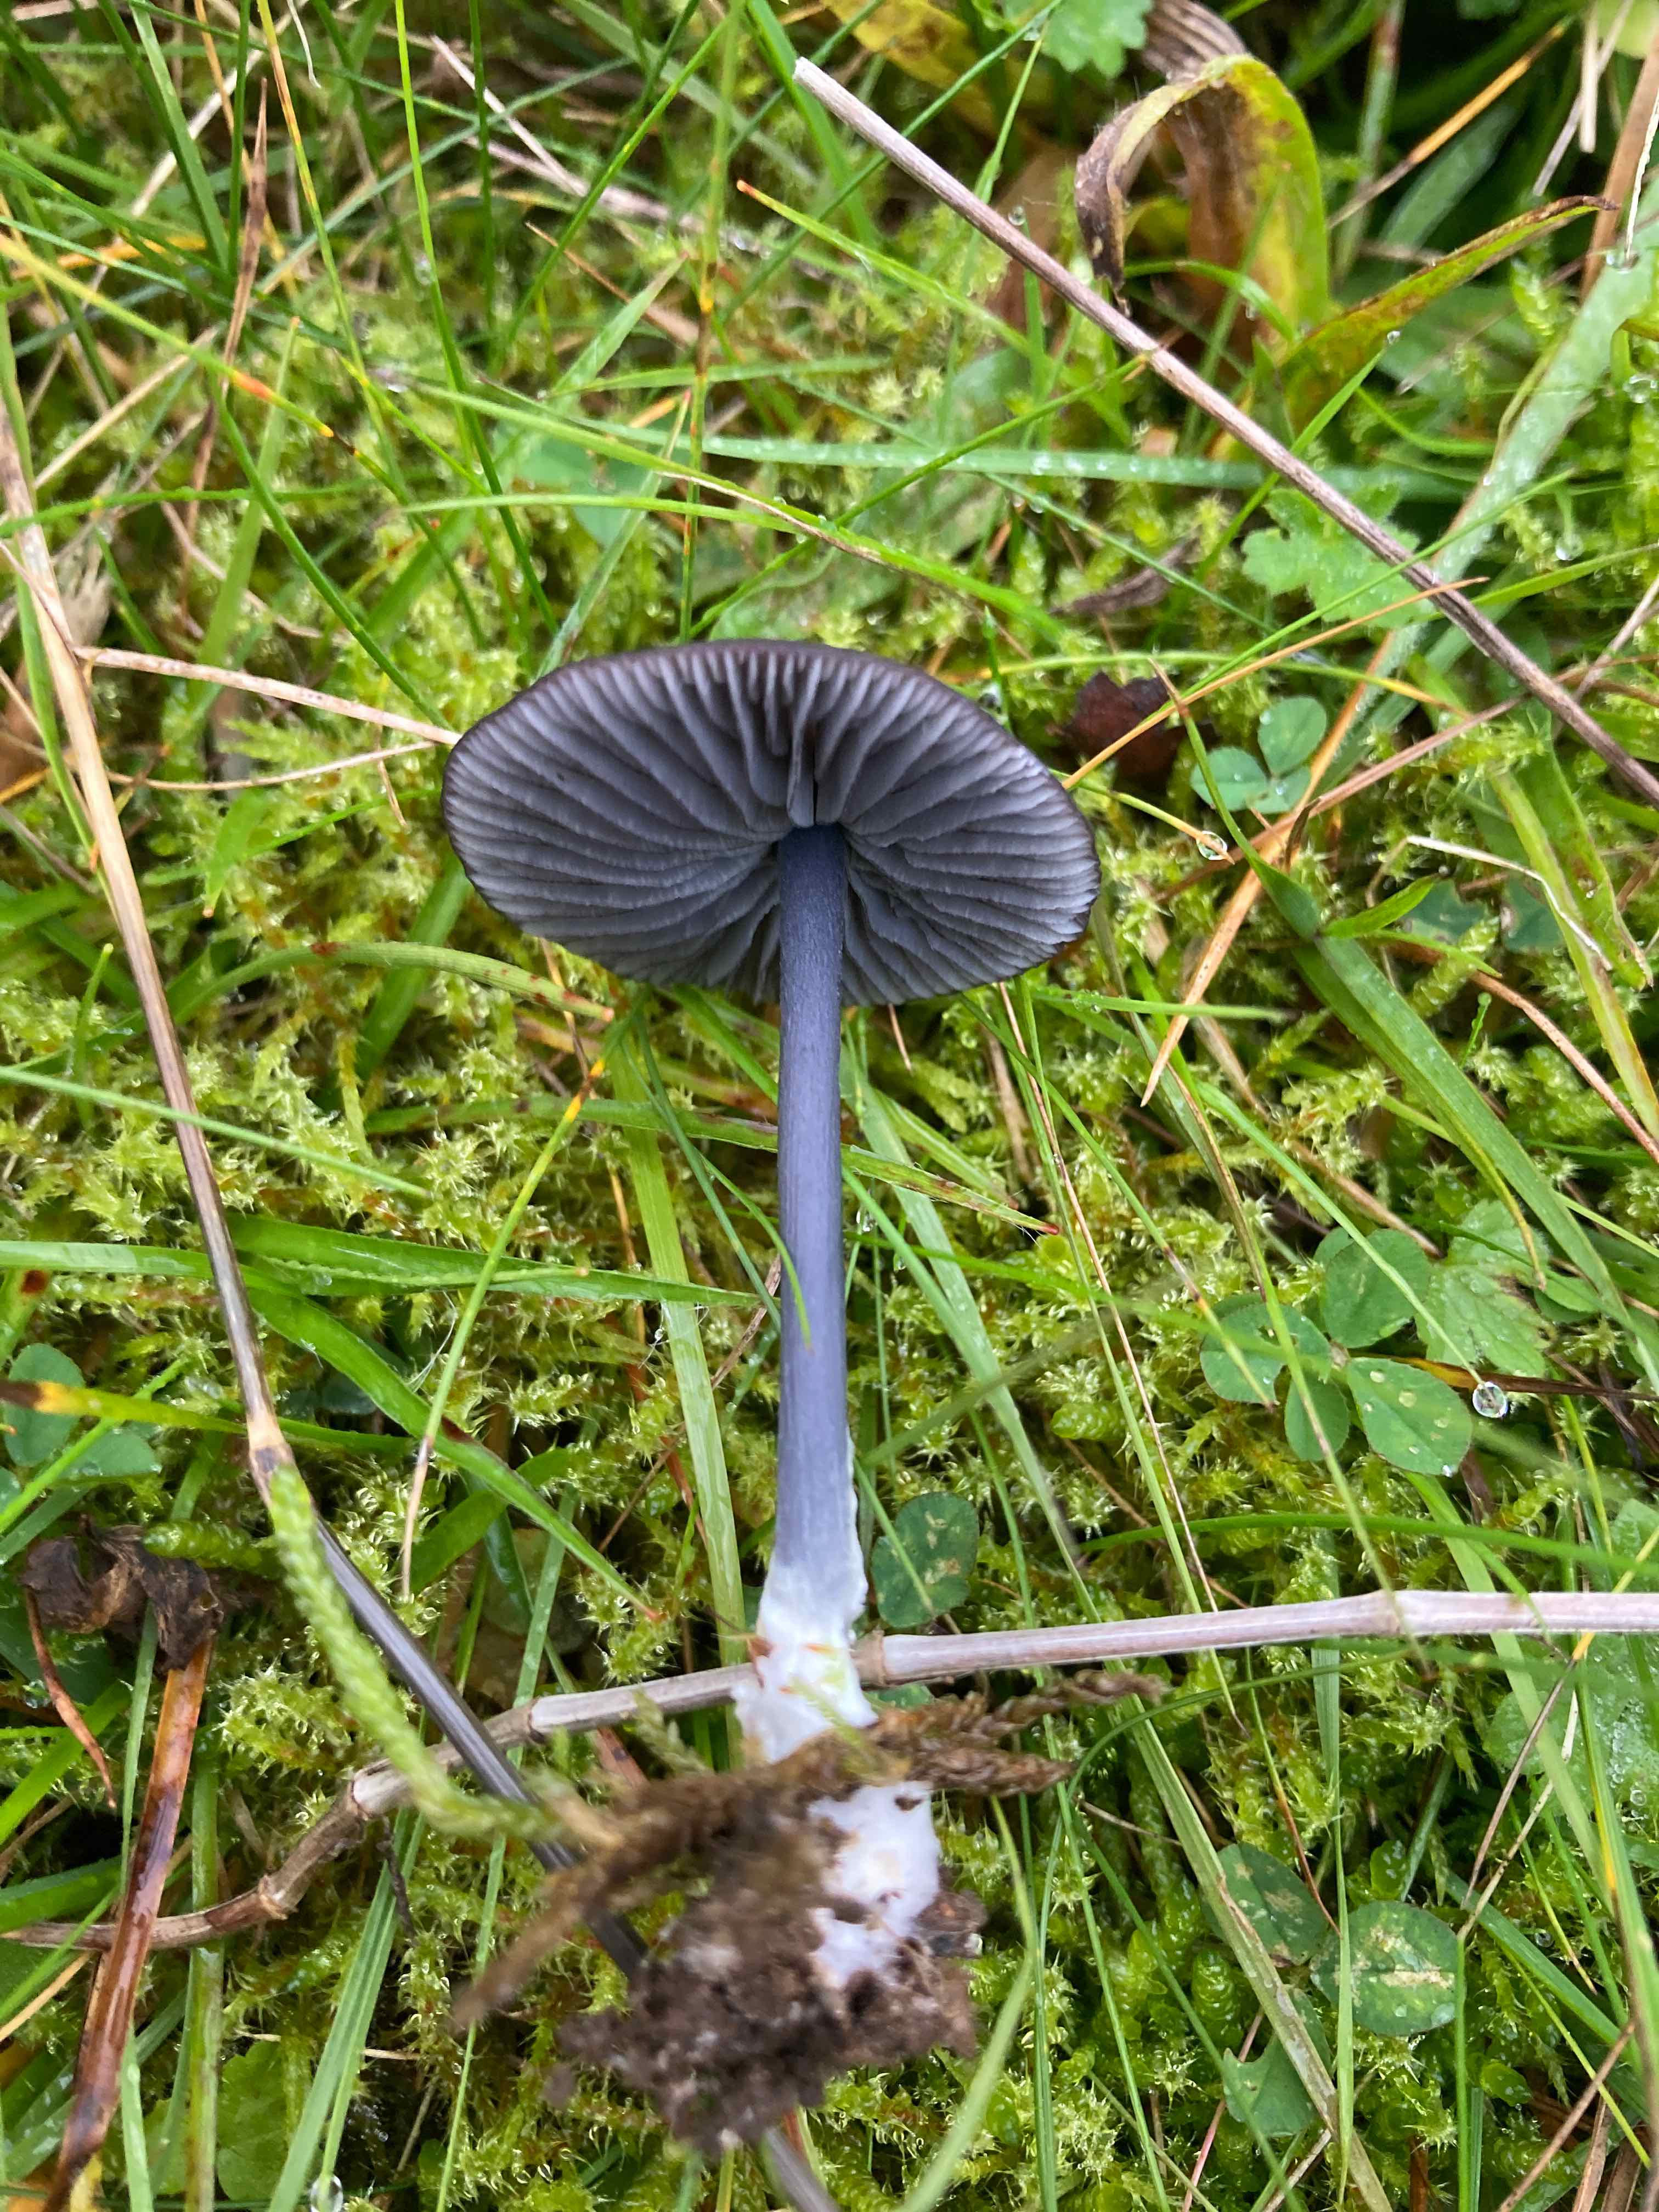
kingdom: Fungi
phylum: Basidiomycota
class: Agaricomycetes
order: Agaricales
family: Entolomataceae
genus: Entoloma
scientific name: Entoloma chalybeum
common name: blåbladet rødblad
